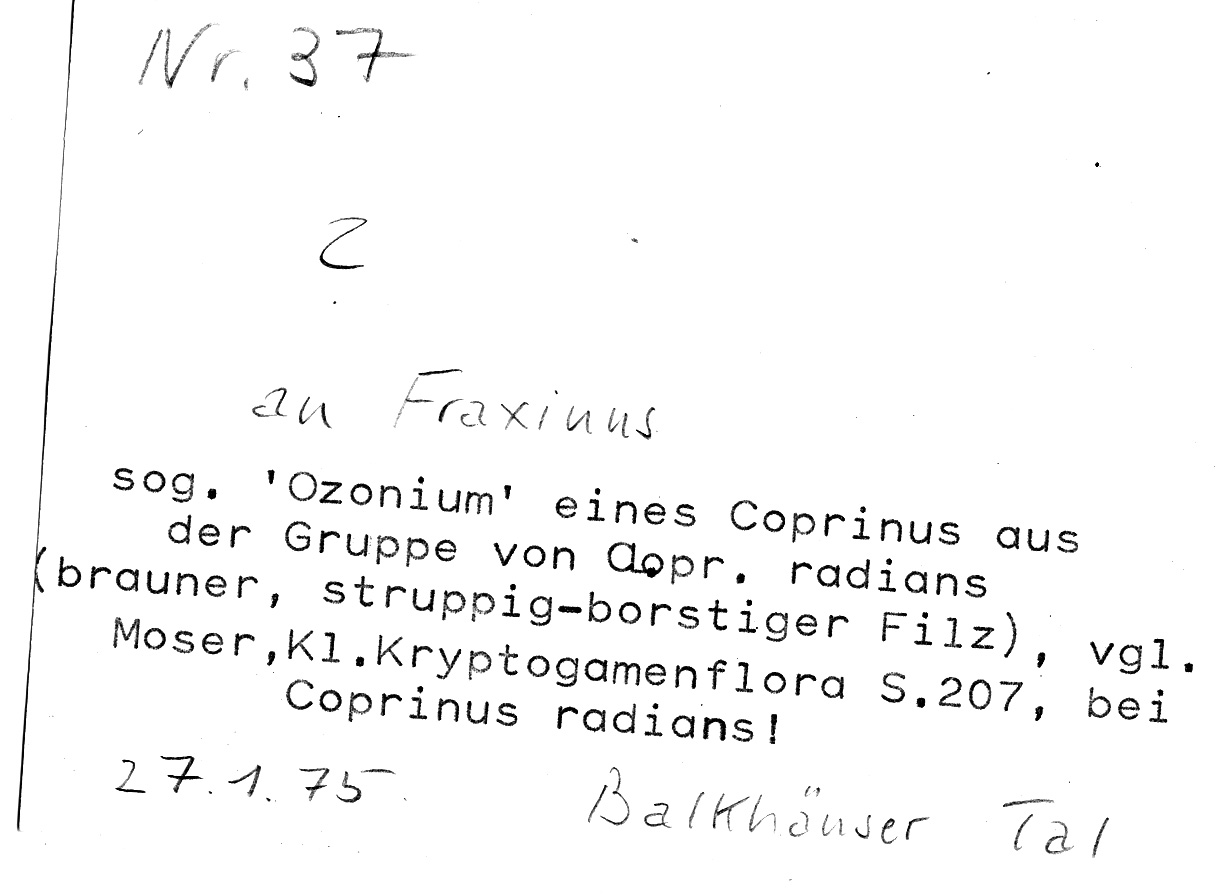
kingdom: Plantae
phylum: Tracheophyta
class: Magnoliopsida
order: Lamiales
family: Oleaceae
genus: Fraxinus
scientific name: Fraxinus
